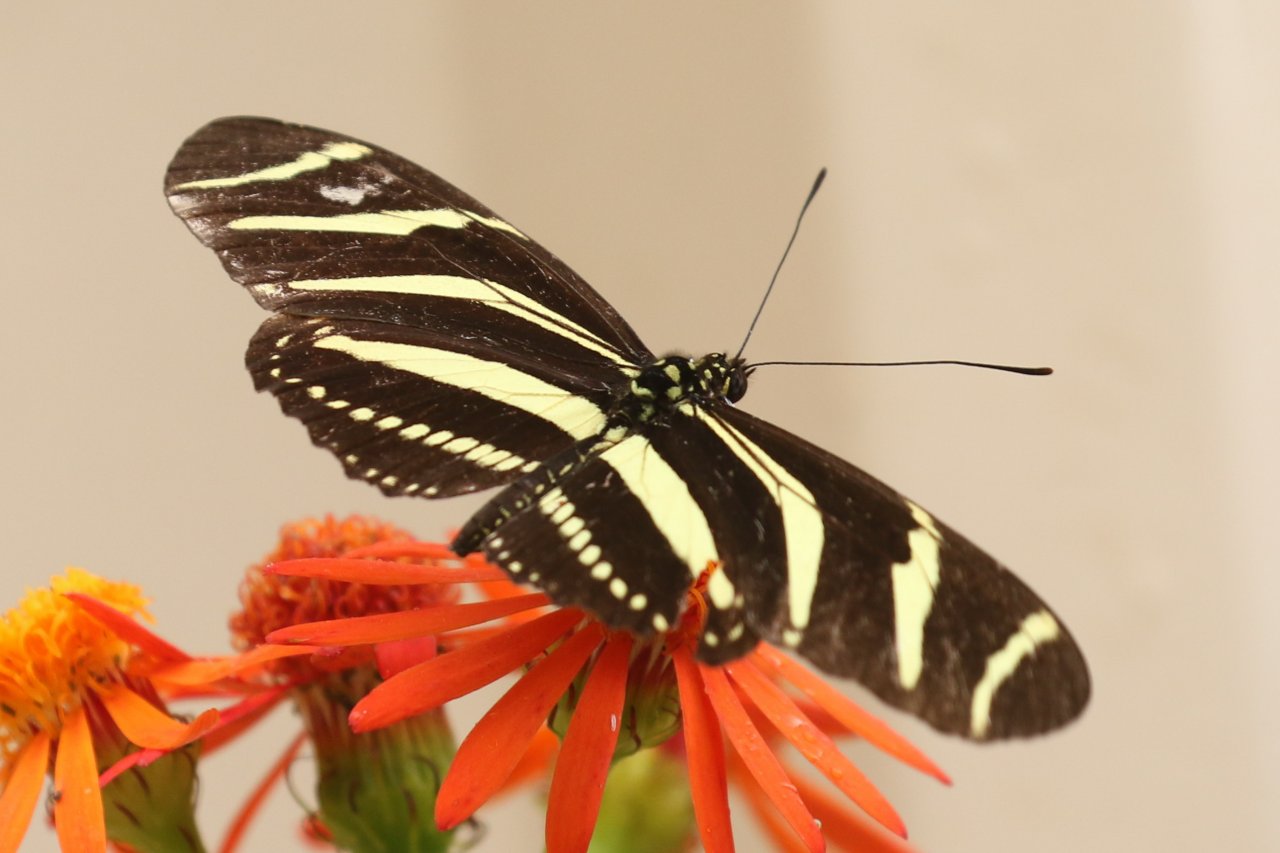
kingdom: Animalia
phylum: Arthropoda
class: Insecta
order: Lepidoptera
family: Nymphalidae
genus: Heliconius
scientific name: Heliconius charithonia
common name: Zebra Longwing
